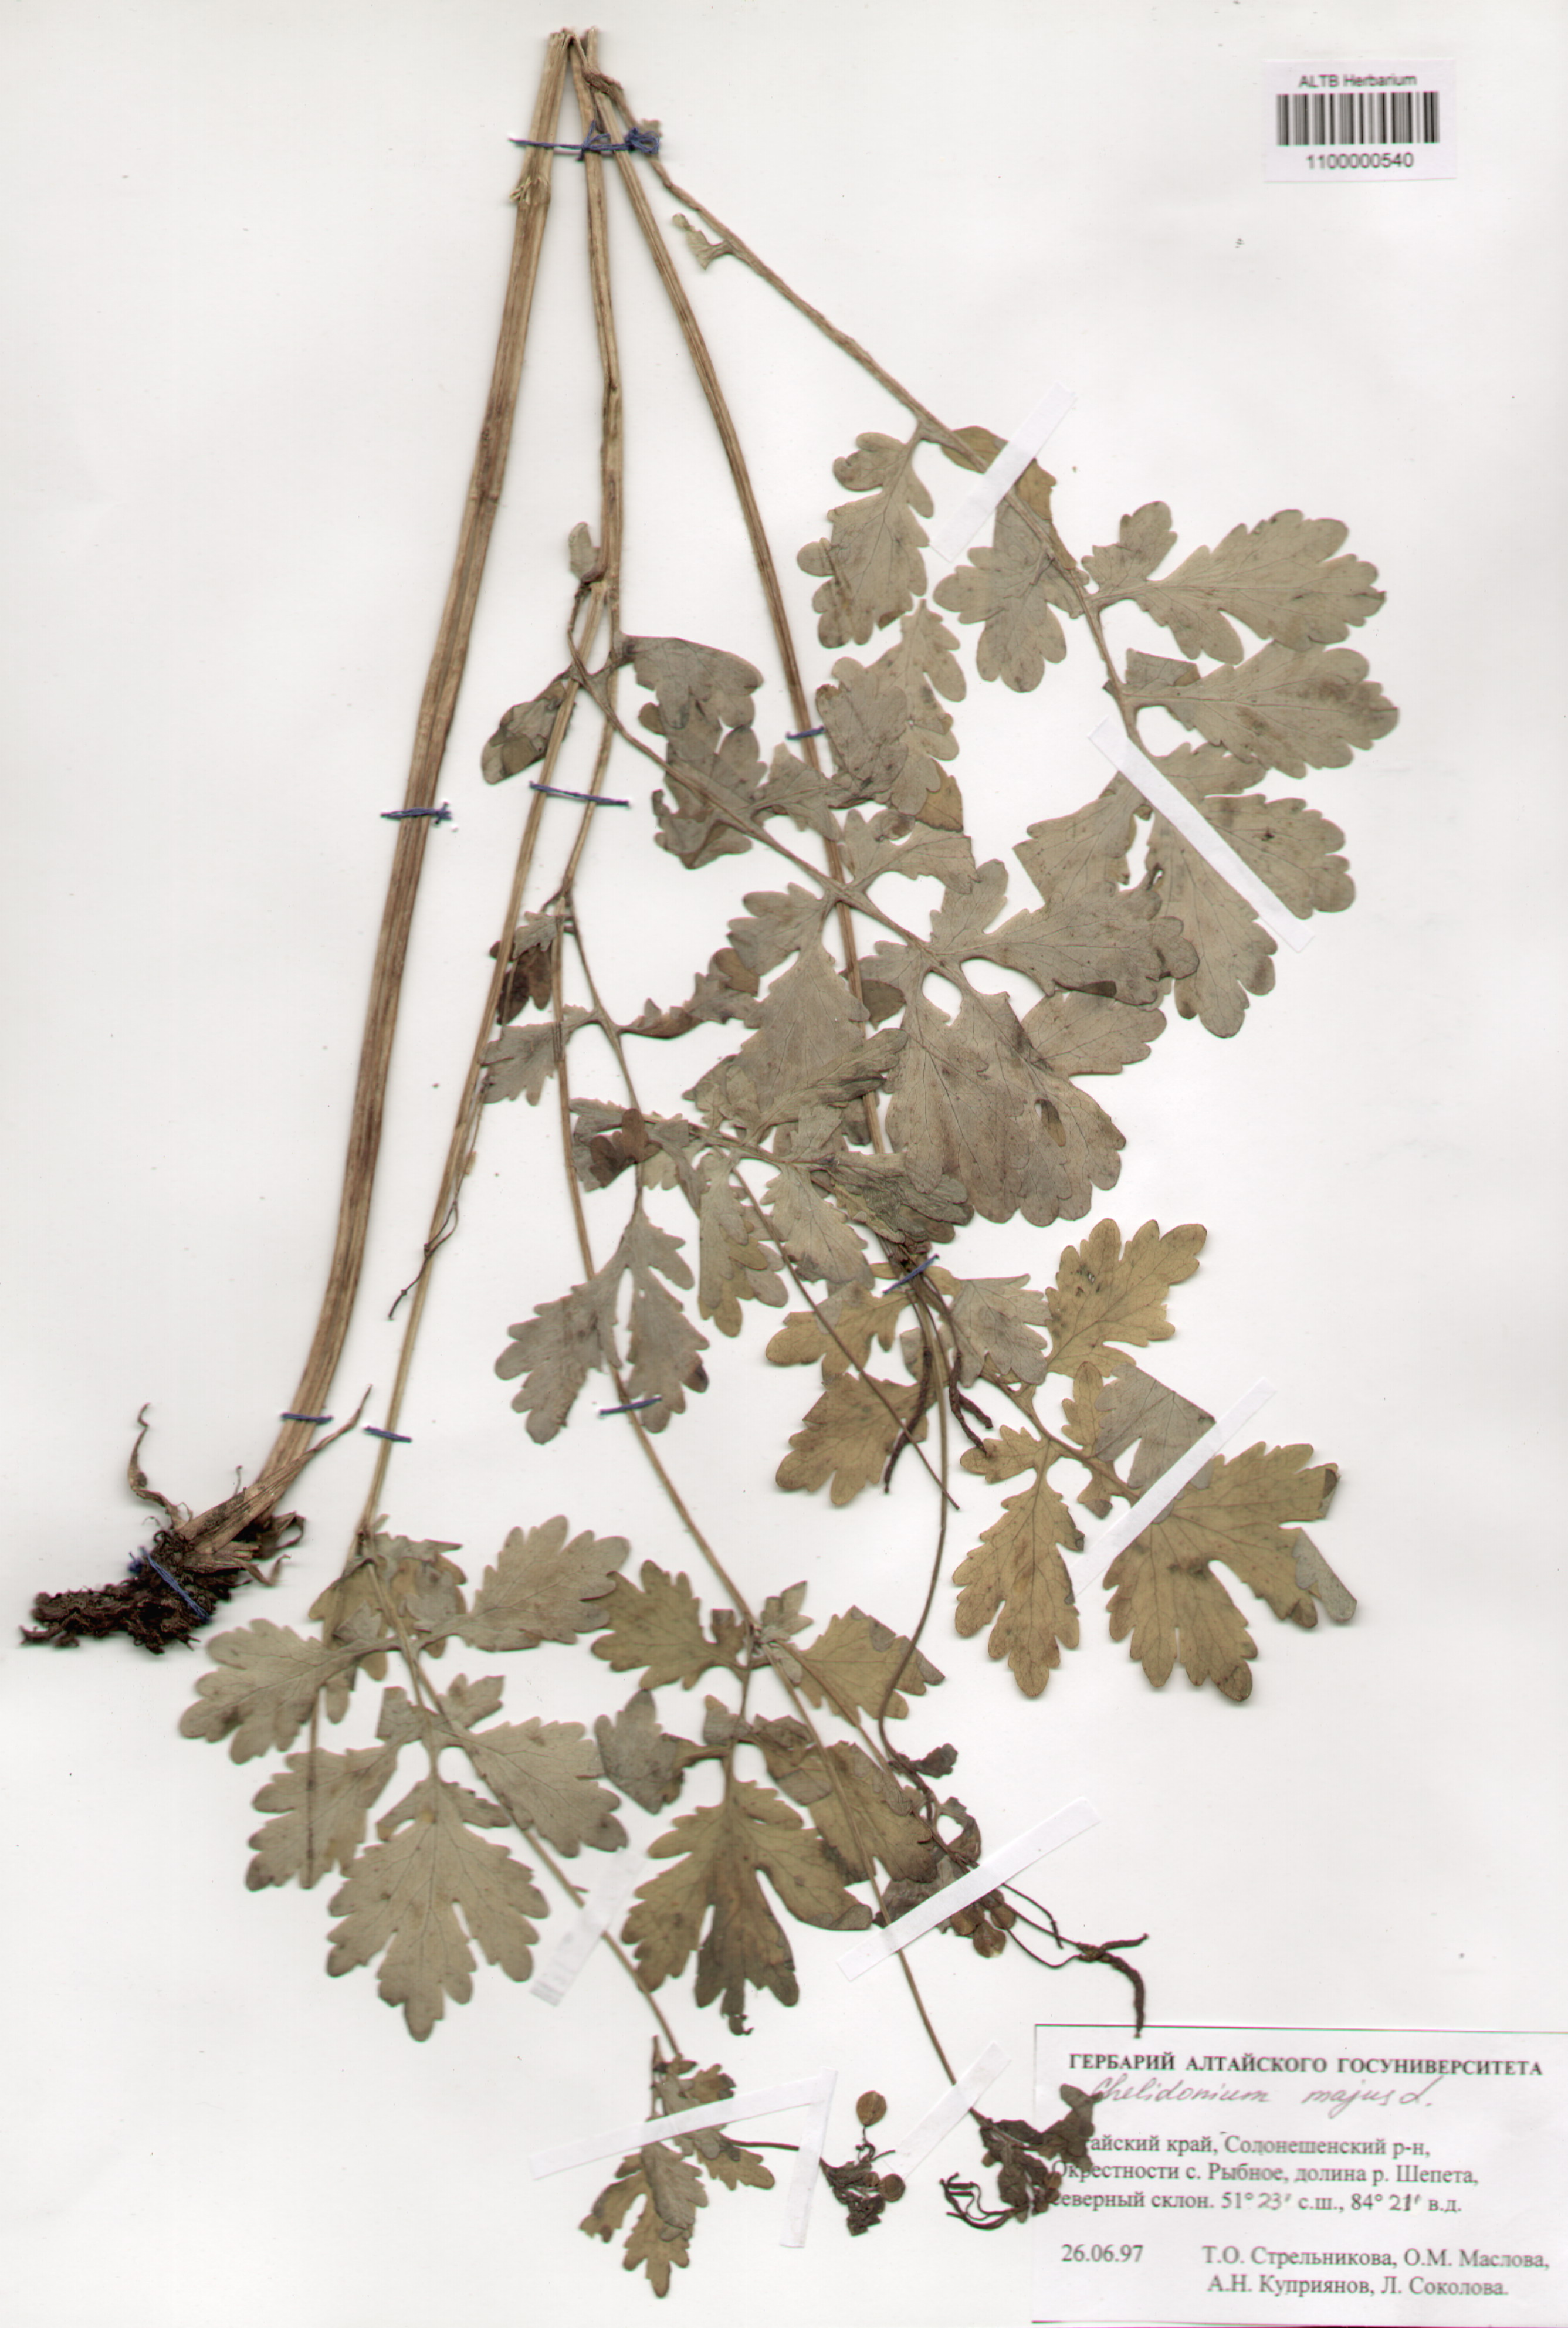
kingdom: Plantae
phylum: Tracheophyta
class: Magnoliopsida
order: Ranunculales
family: Papaveraceae
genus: Chelidonium
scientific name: Chelidonium majus
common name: Greater celandine
